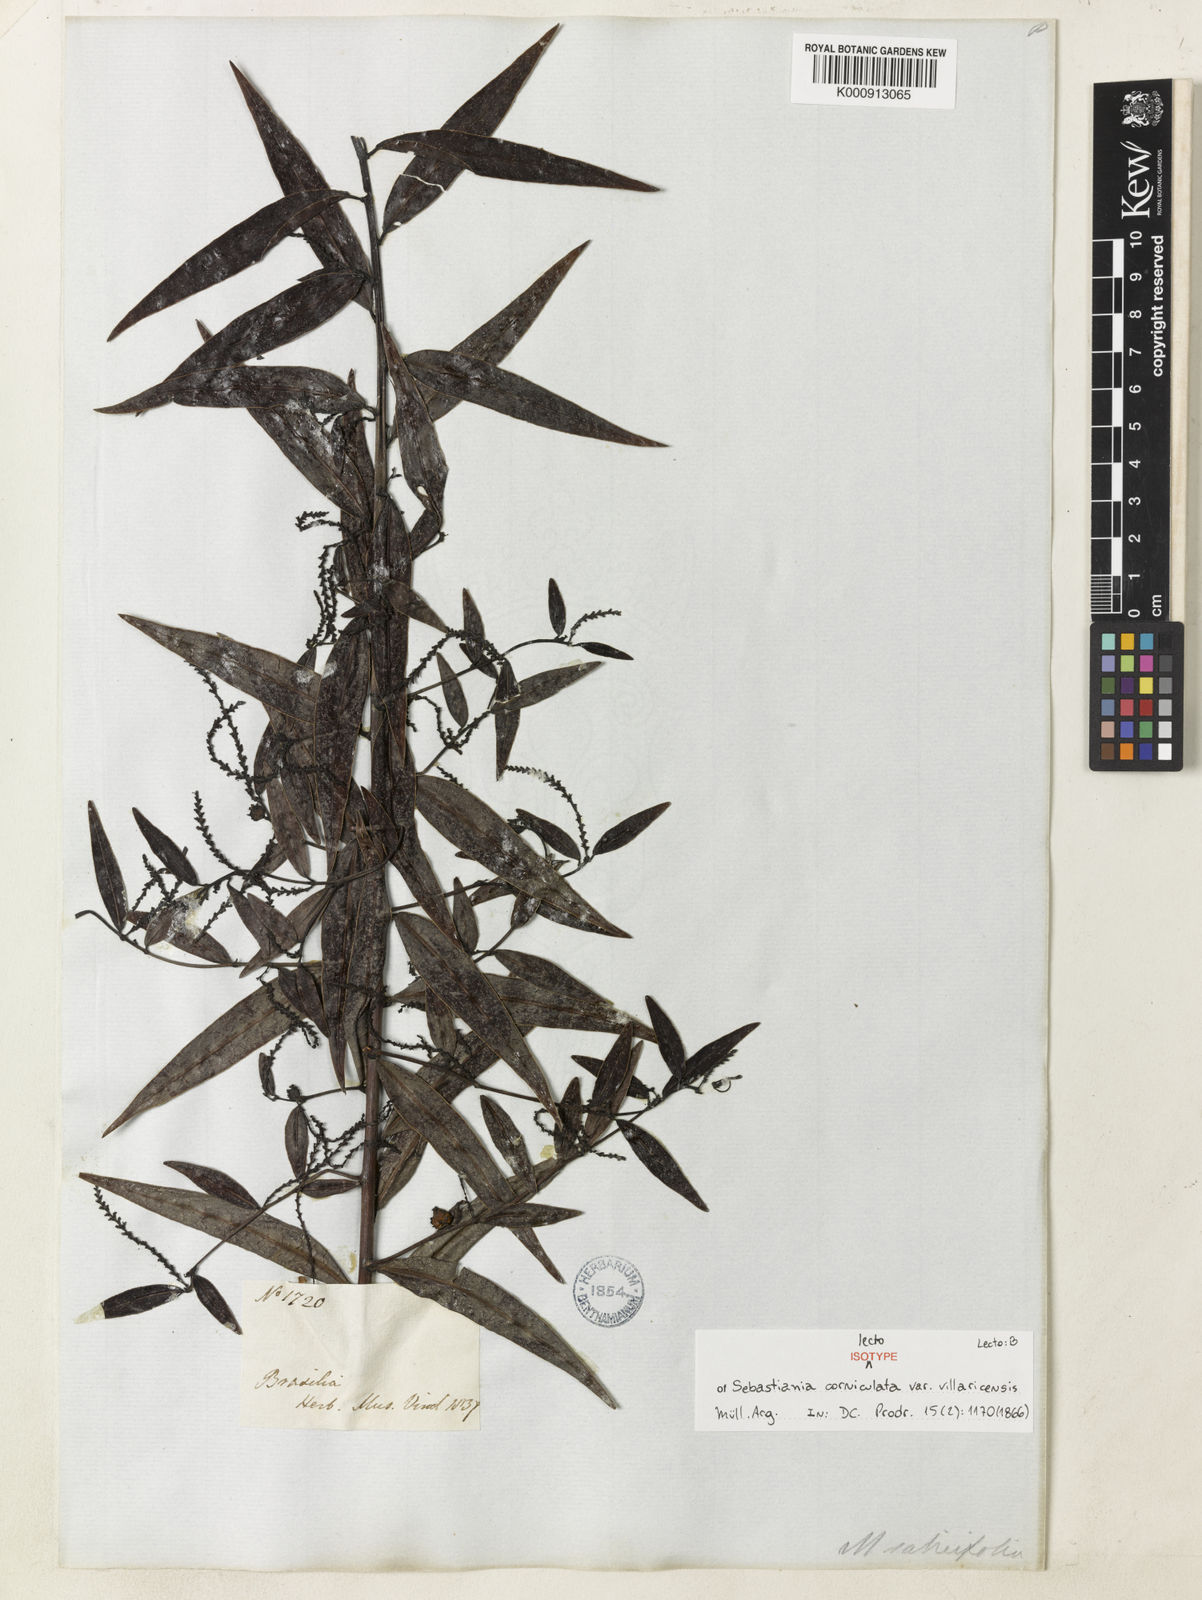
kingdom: Plantae
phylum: Tracheophyta
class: Magnoliopsida
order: Malpighiales
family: Euphorbiaceae
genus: Microstachys
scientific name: Microstachys corniculata
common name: Hato tejas
